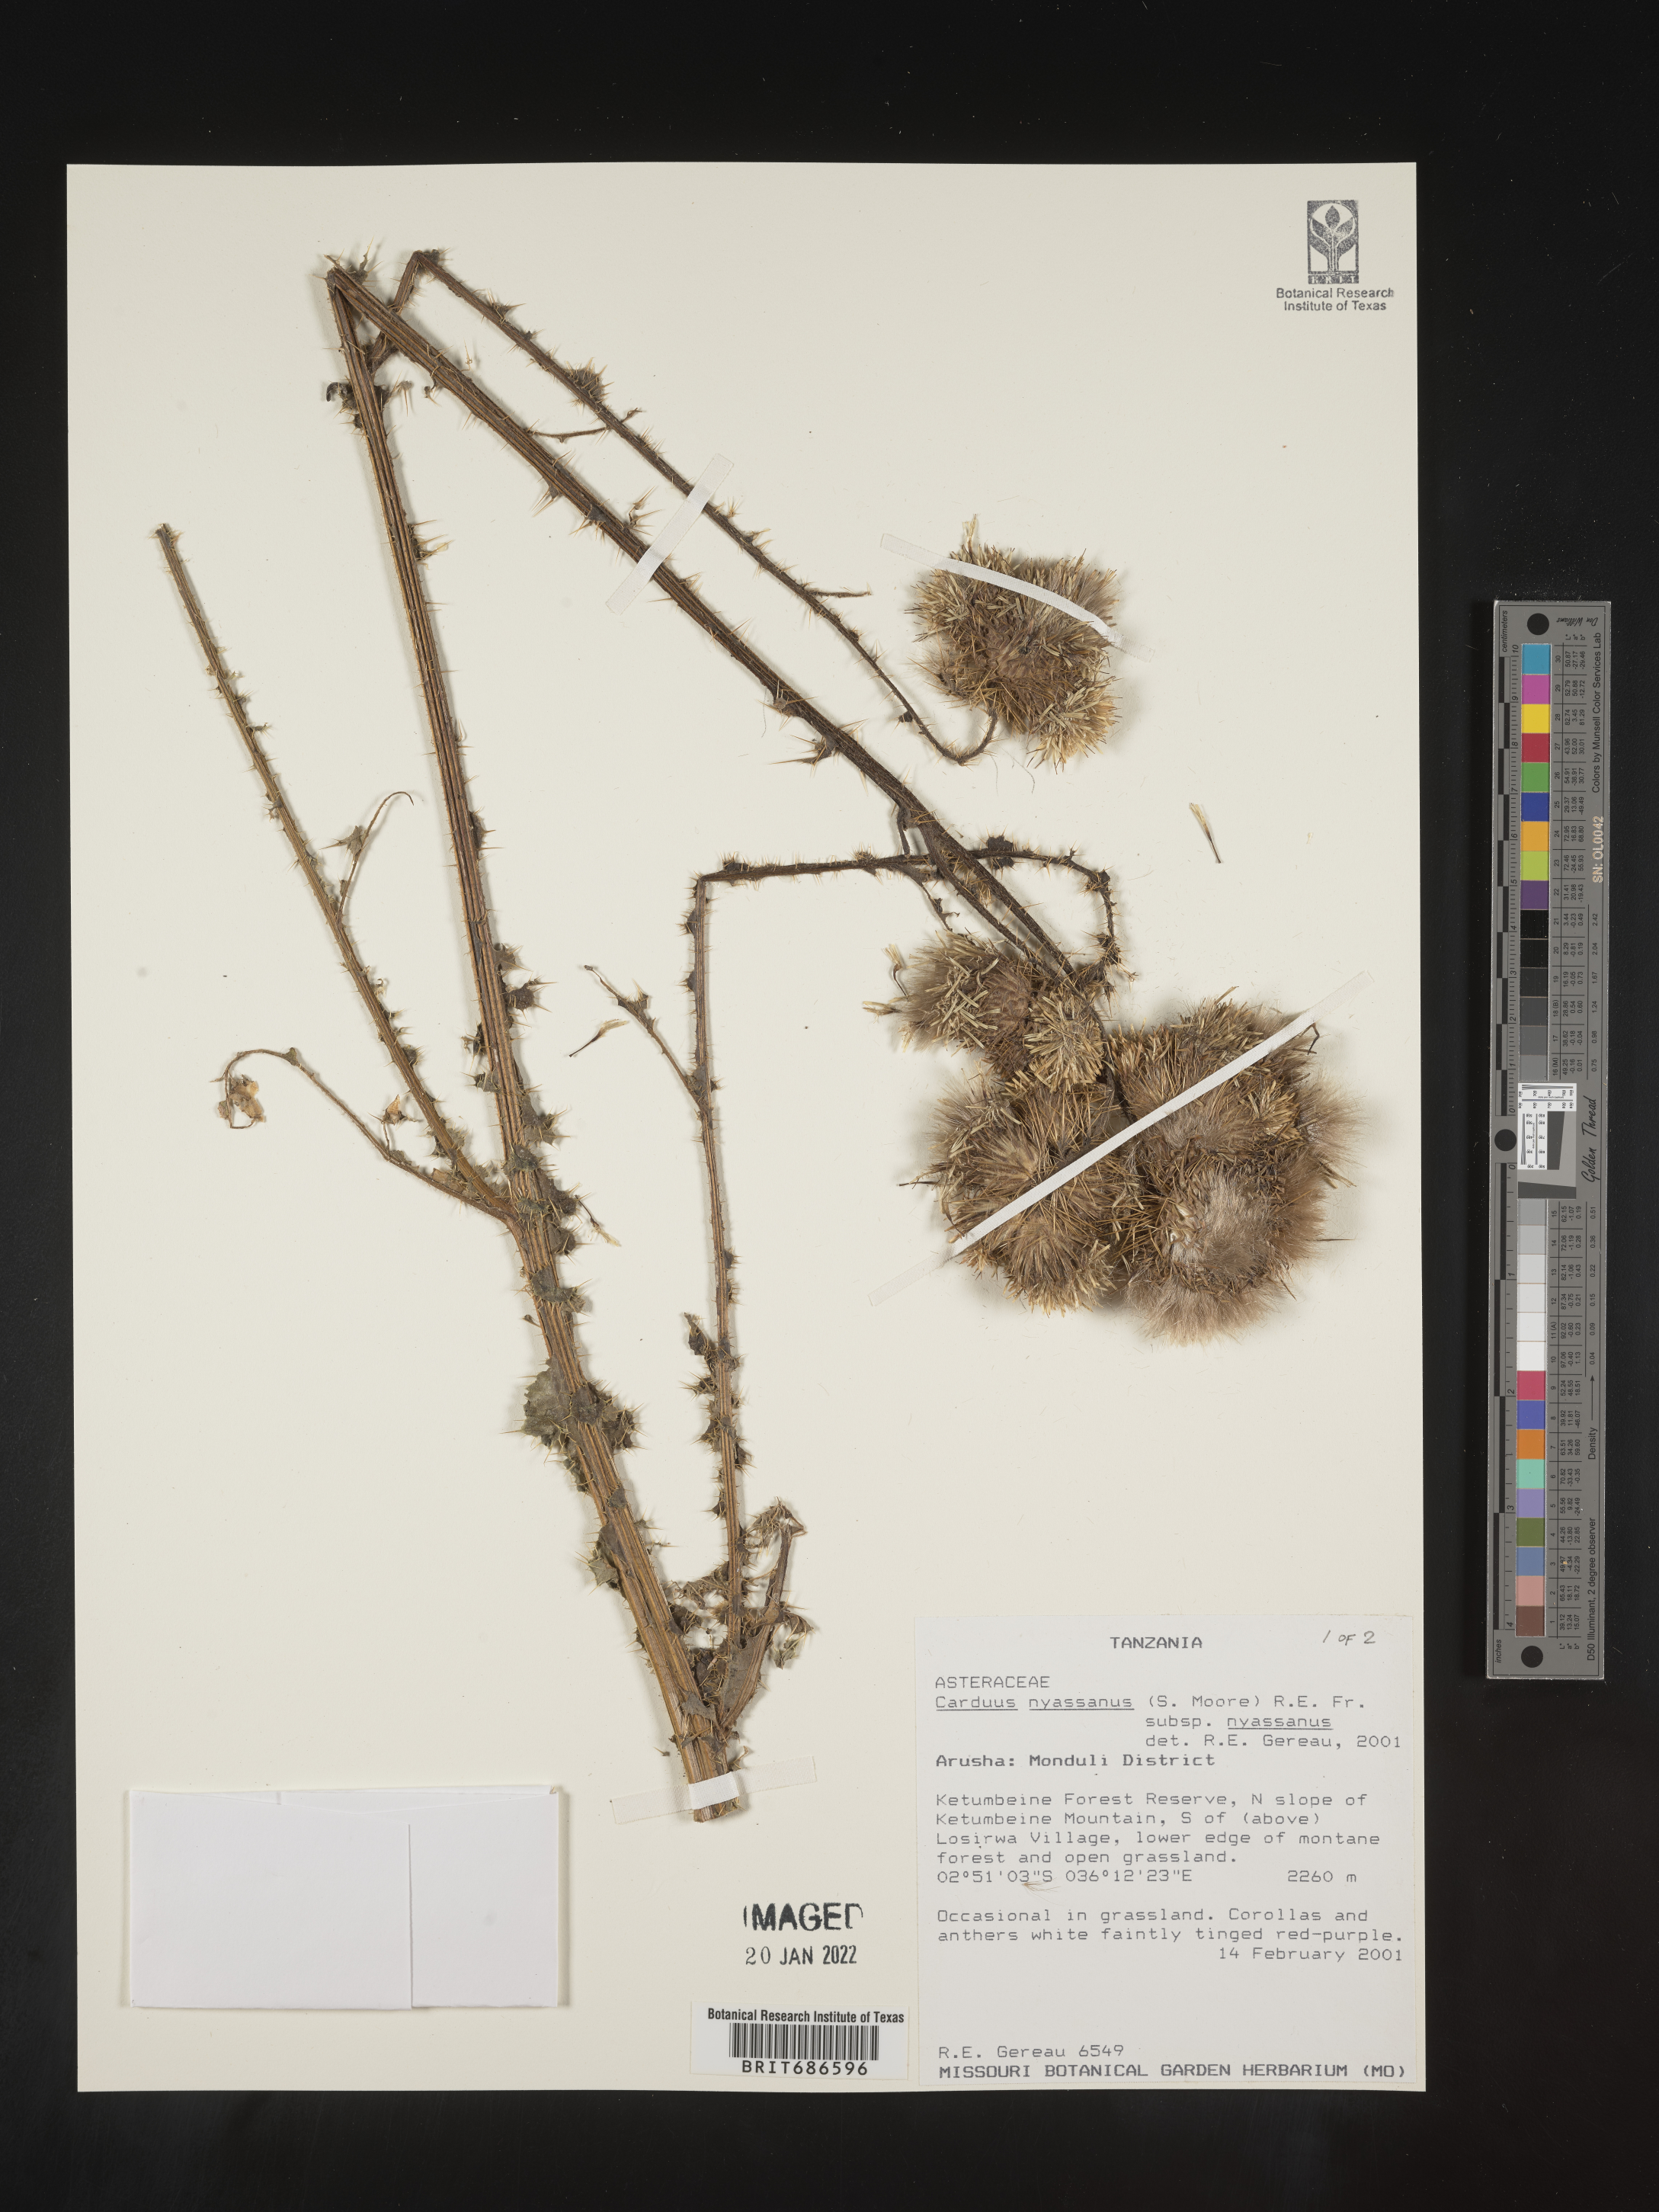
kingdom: Plantae
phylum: Tracheophyta
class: Magnoliopsida
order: Asterales
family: Asteraceae
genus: Carduus
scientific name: Carduus
